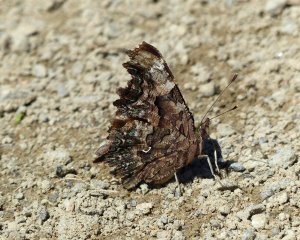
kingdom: Animalia
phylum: Arthropoda
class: Insecta
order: Lepidoptera
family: Nymphalidae
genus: Polygonia
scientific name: Polygonia faunus
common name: Green Comma
